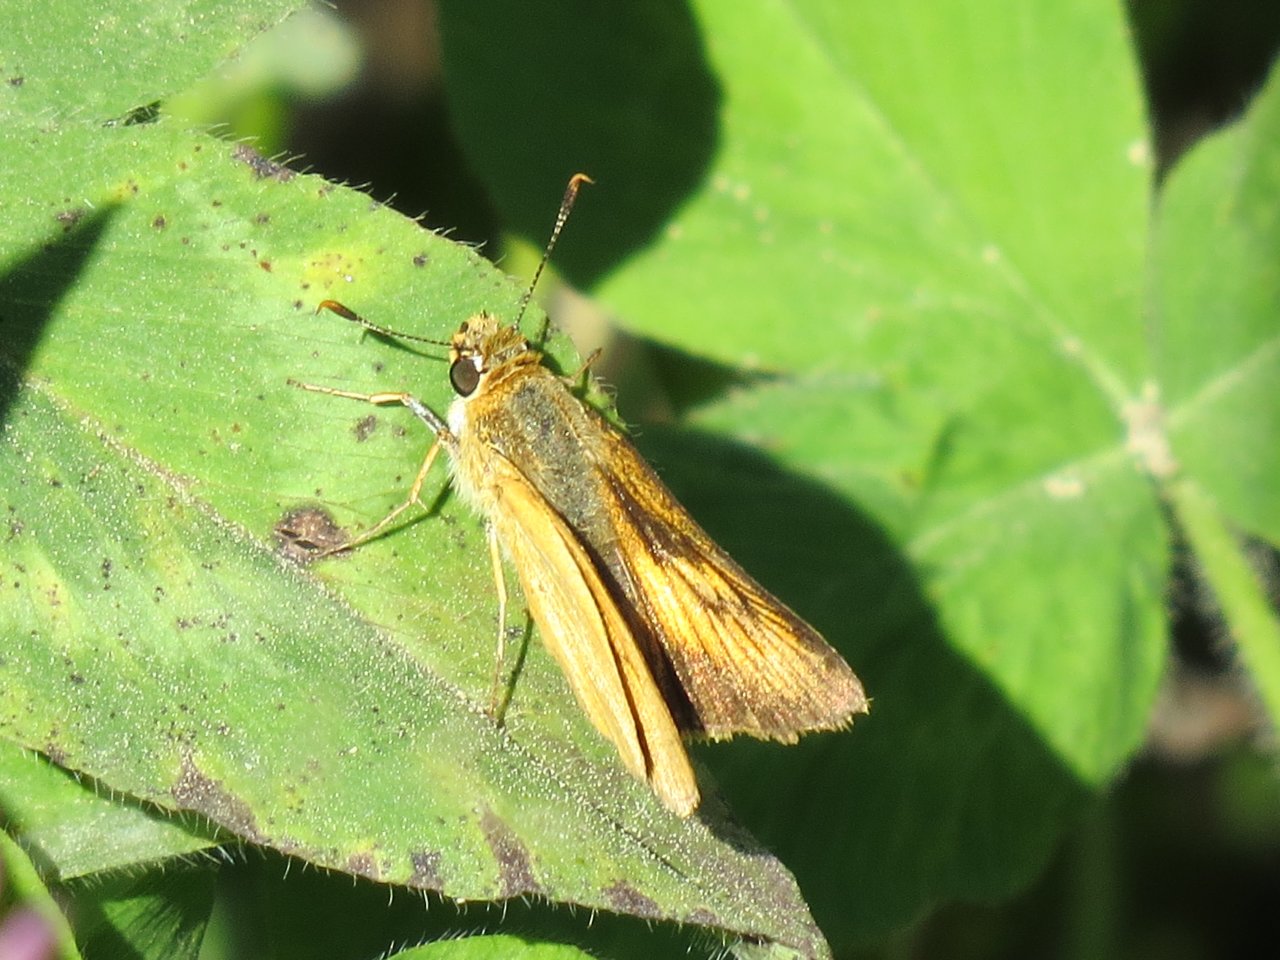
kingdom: Animalia
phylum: Arthropoda
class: Insecta
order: Lepidoptera
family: Hesperiidae
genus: Atrytone
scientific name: Atrytone delaware
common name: Delaware Skipper
